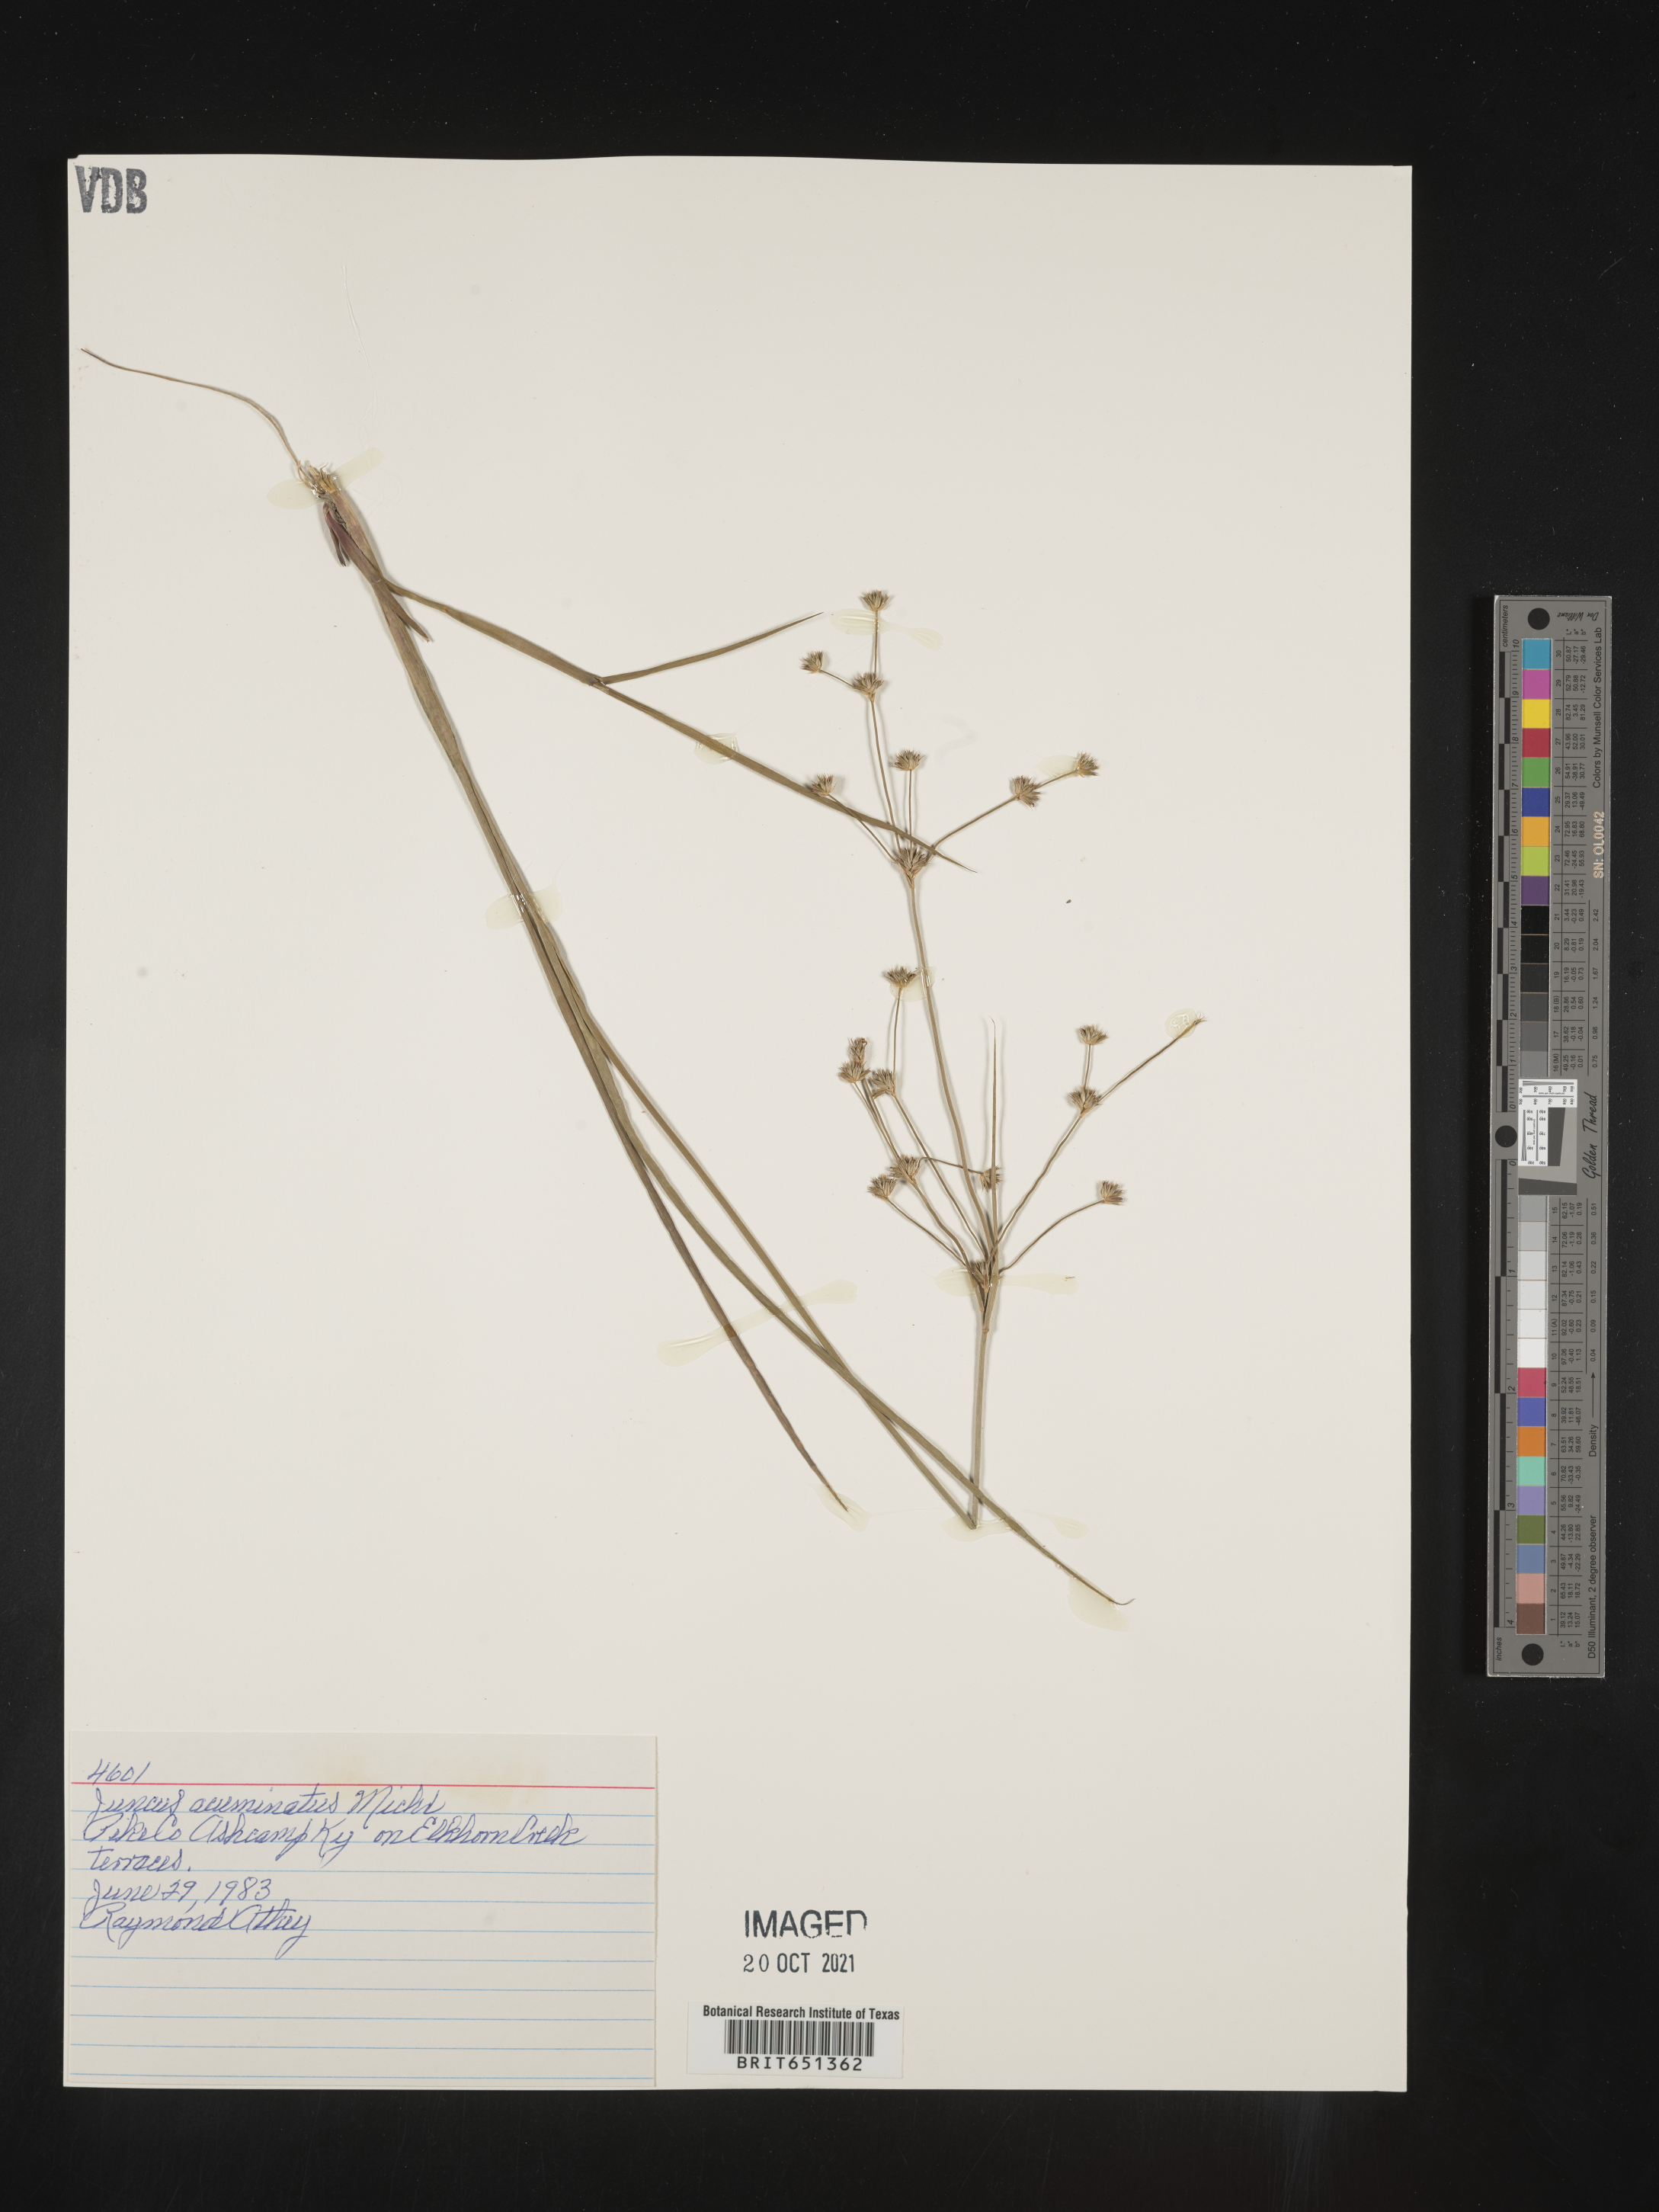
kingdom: Plantae
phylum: Tracheophyta
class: Liliopsida
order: Poales
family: Juncaceae
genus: Juncus
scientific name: Juncus acuminatus
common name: Knotty-leaved rush
